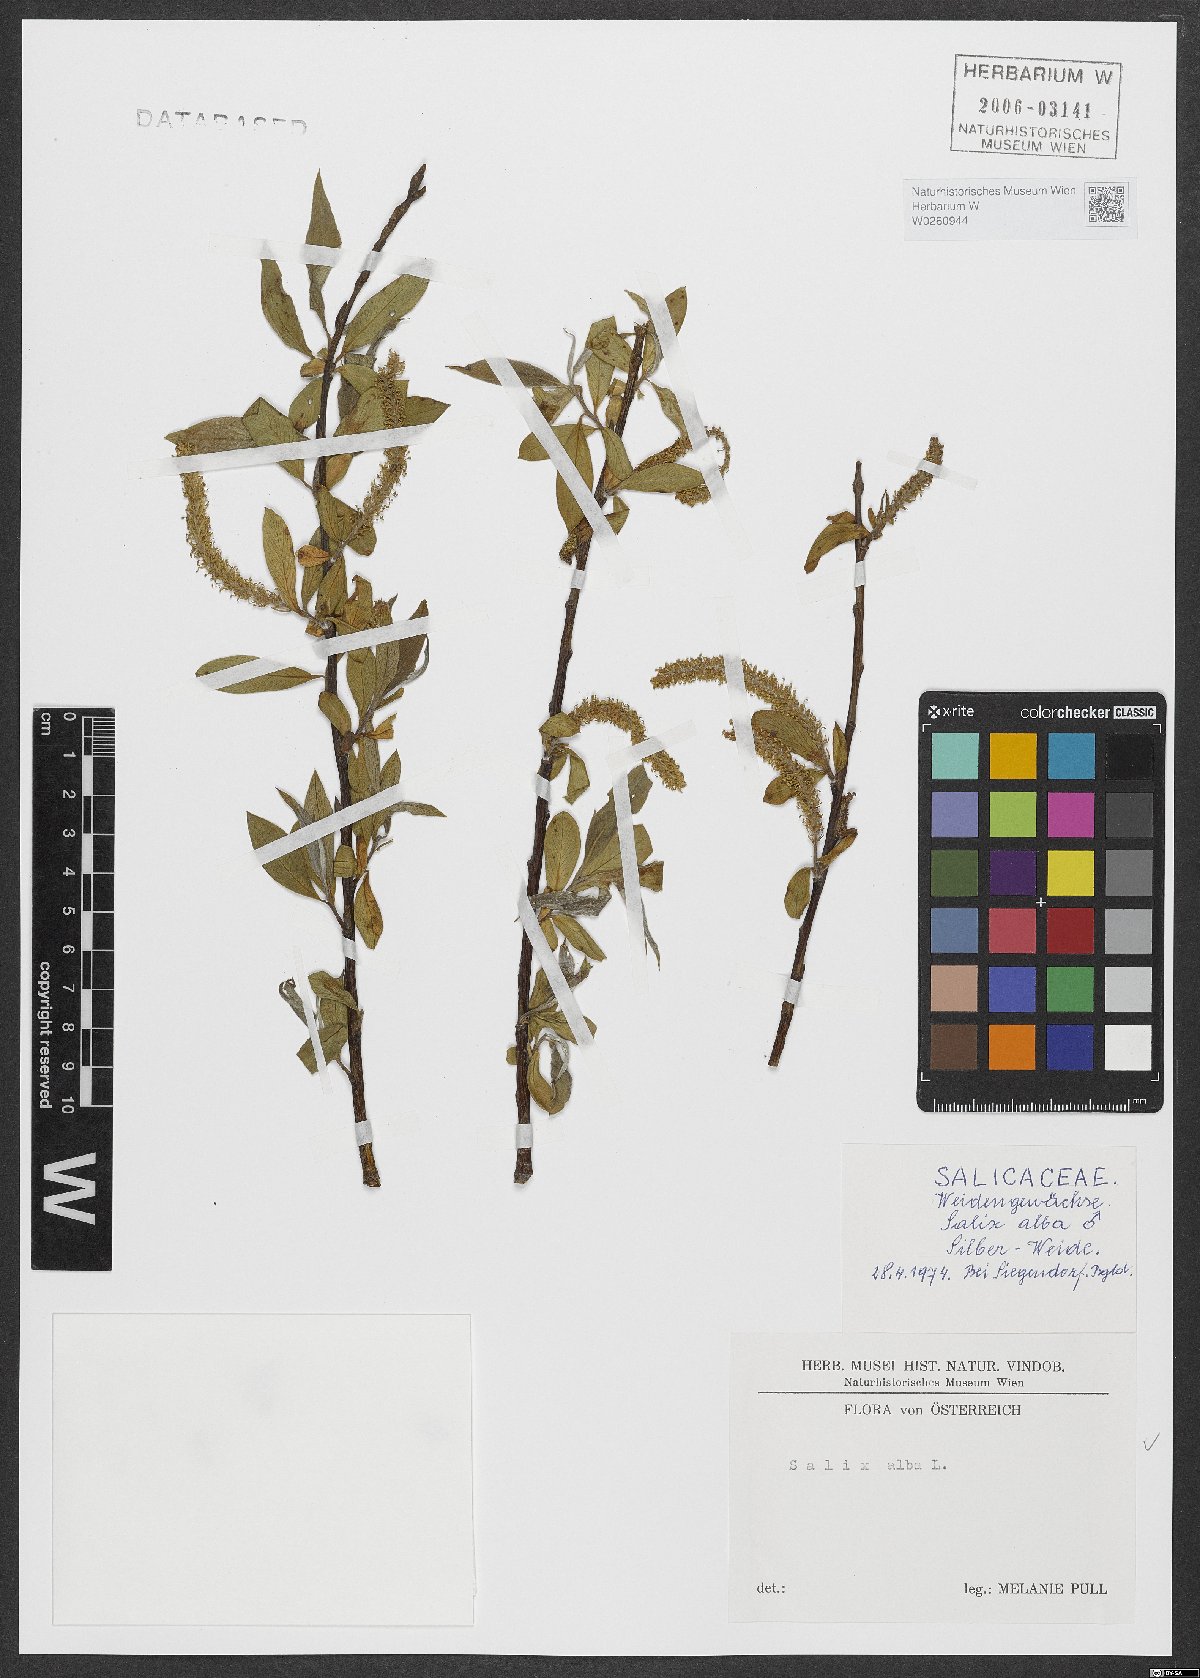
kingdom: Plantae
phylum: Tracheophyta
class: Magnoliopsida
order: Malpighiales
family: Salicaceae
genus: Salix
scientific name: Salix alba
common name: White willow
